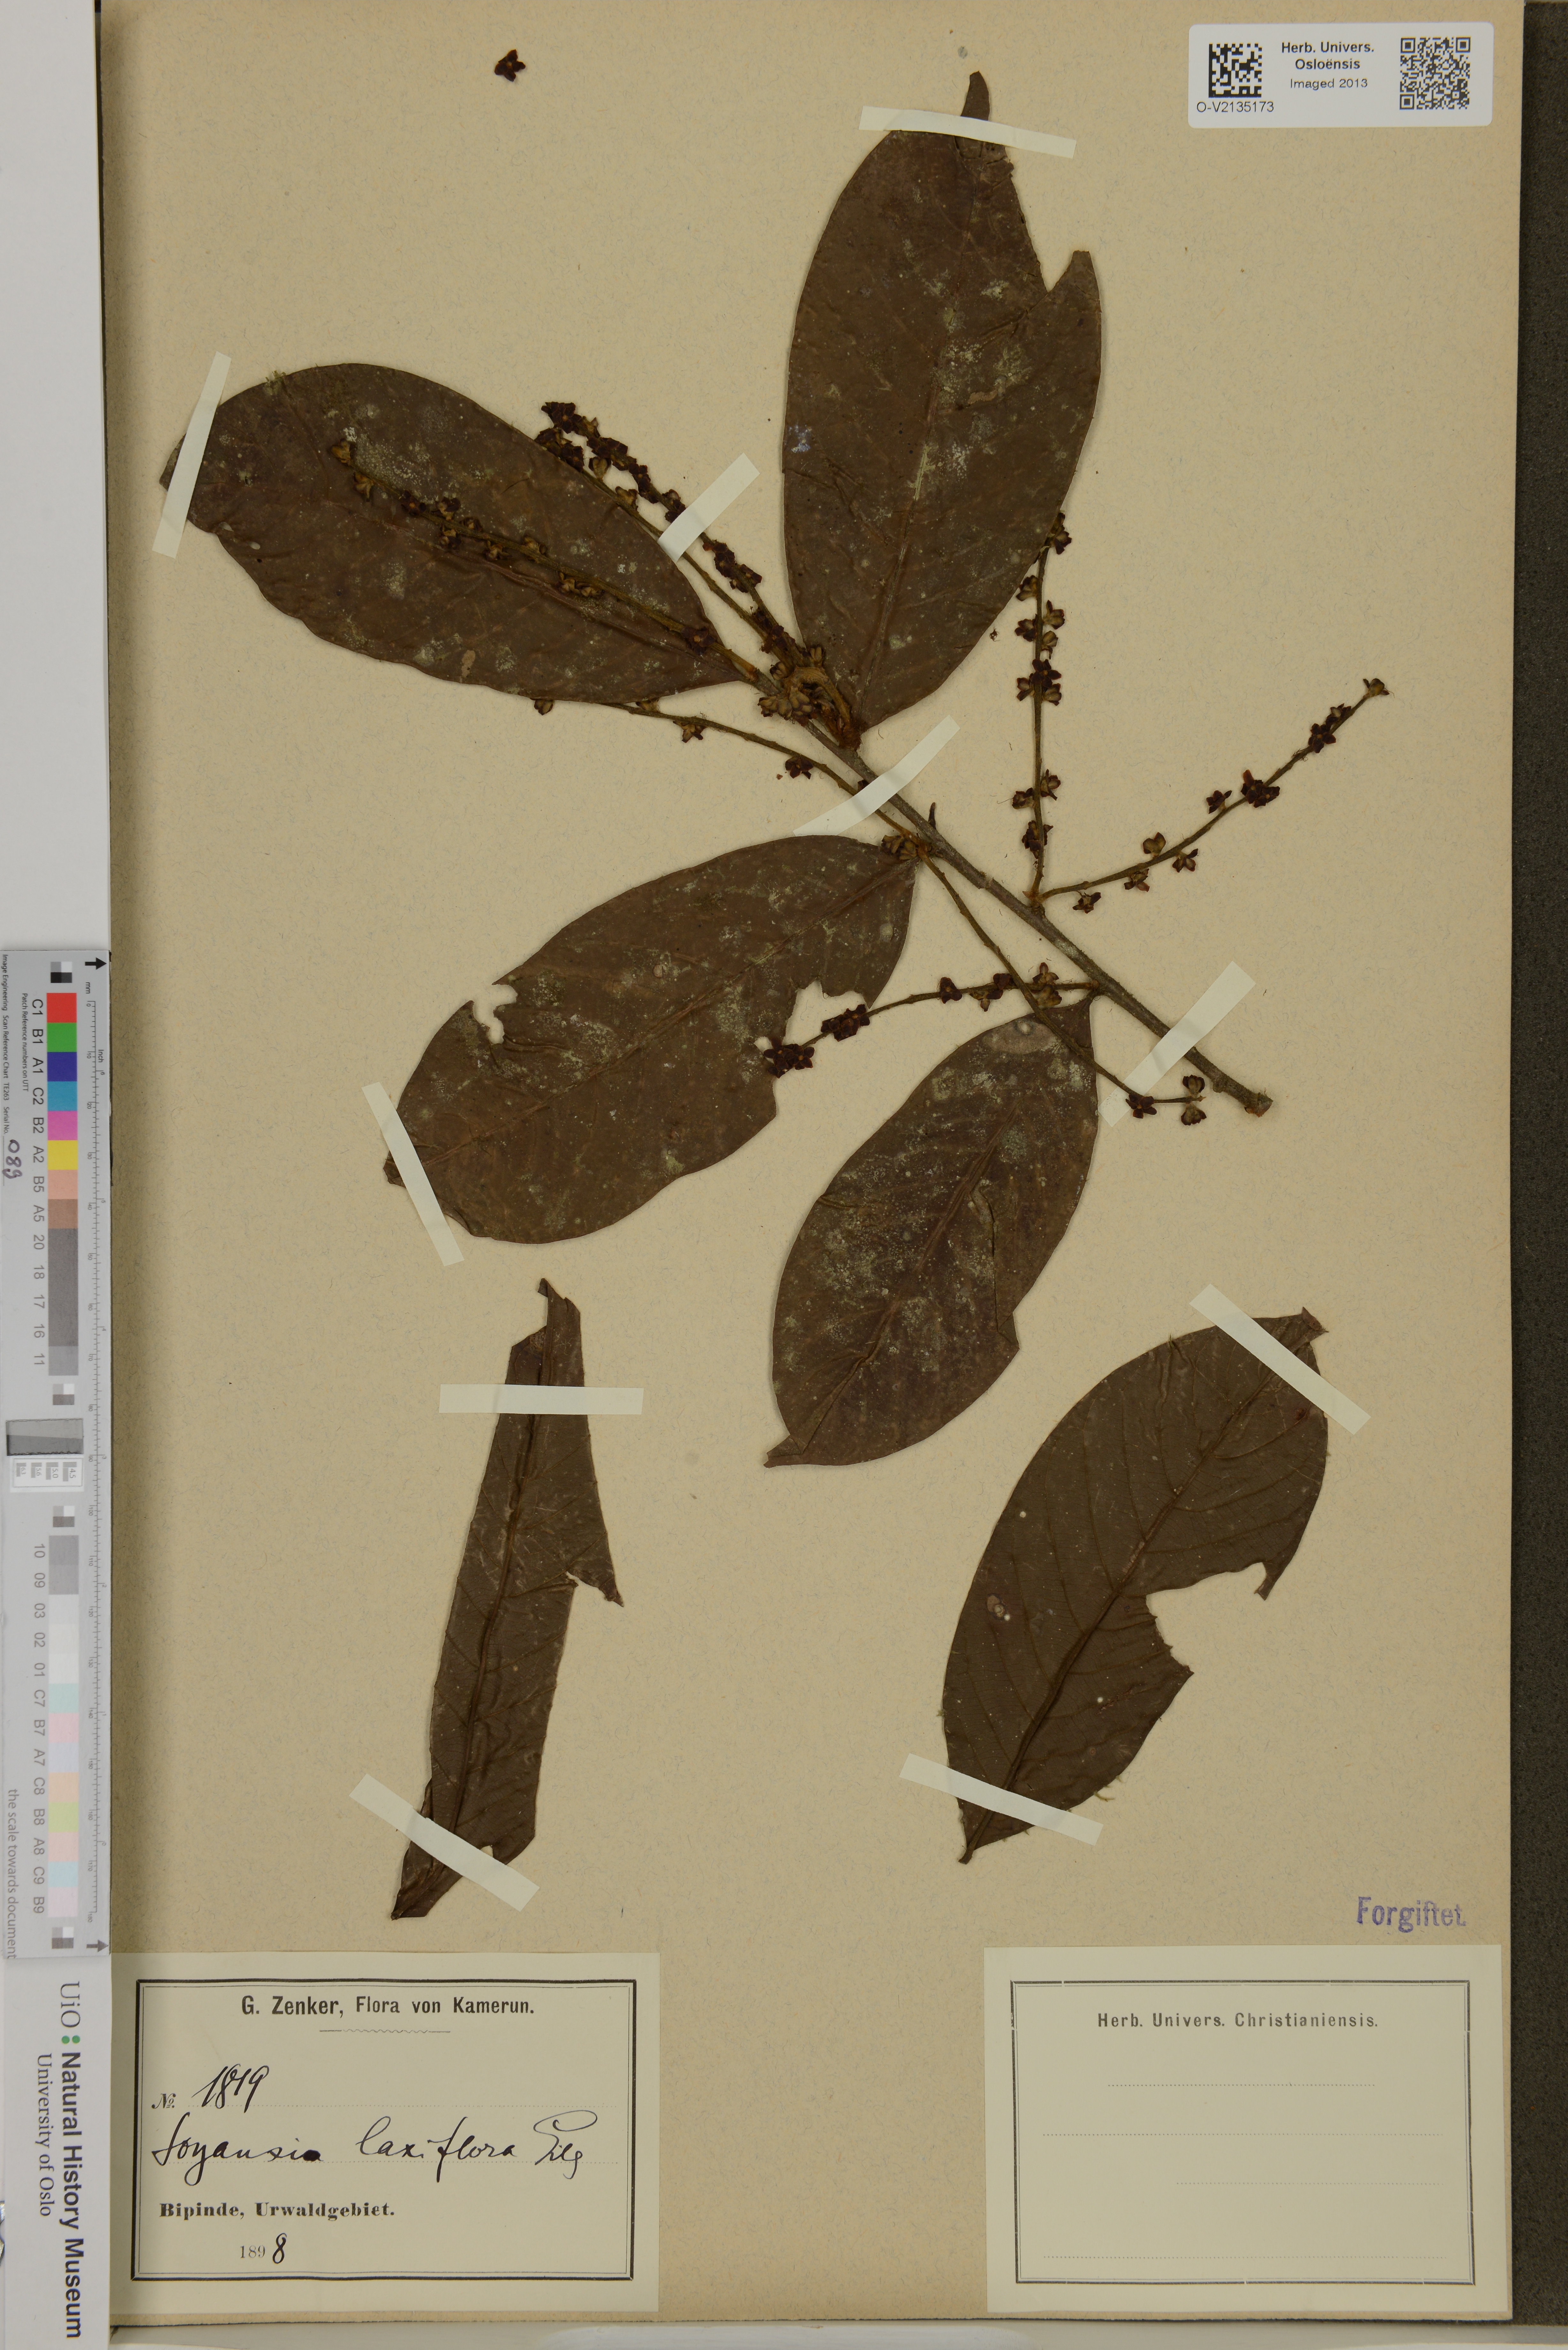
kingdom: Plantae
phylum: Tracheophyta
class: Magnoliopsida
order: Saxifragales
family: Peridiscaceae
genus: Soyauxia
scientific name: Soyauxia gabonensis
